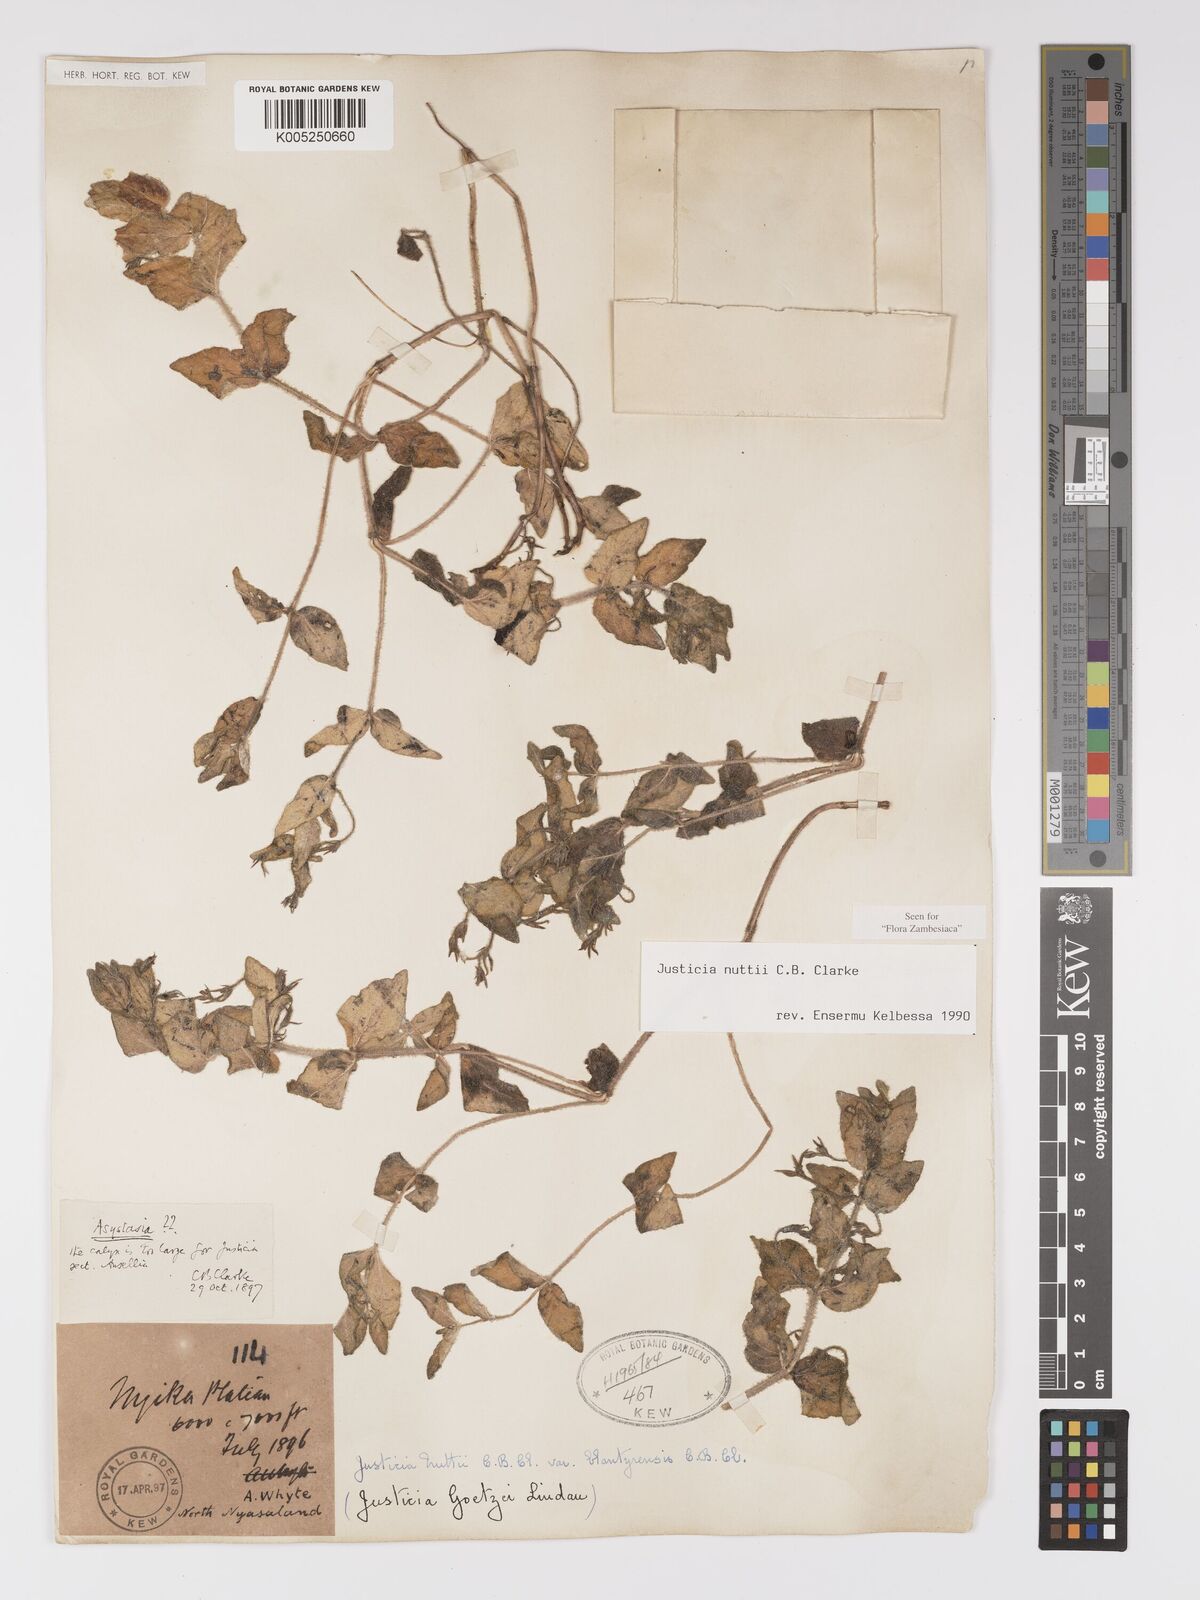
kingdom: Plantae
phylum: Tracheophyta
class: Magnoliopsida
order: Lamiales
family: Acanthaceae
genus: Justicia
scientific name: Justicia nuttii
